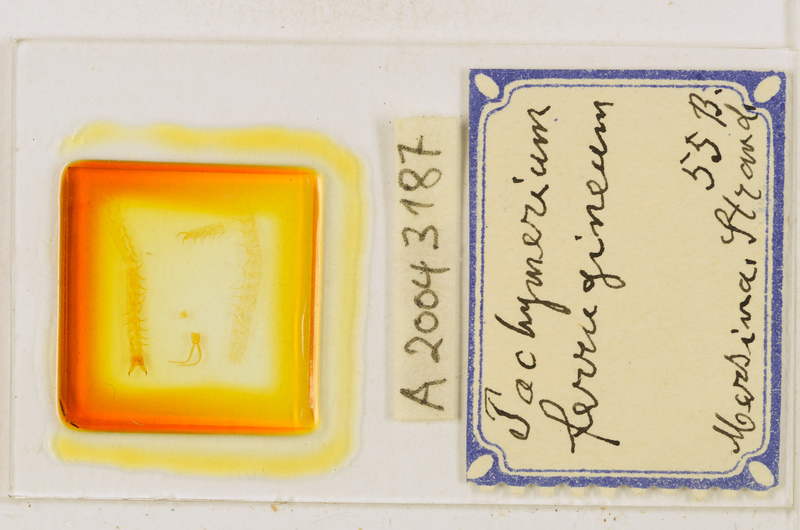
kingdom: Animalia
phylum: Arthropoda
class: Chilopoda
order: Geophilomorpha
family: Geophilidae
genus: Pachymerium
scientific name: Pachymerium ferrugineum
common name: Centipede
